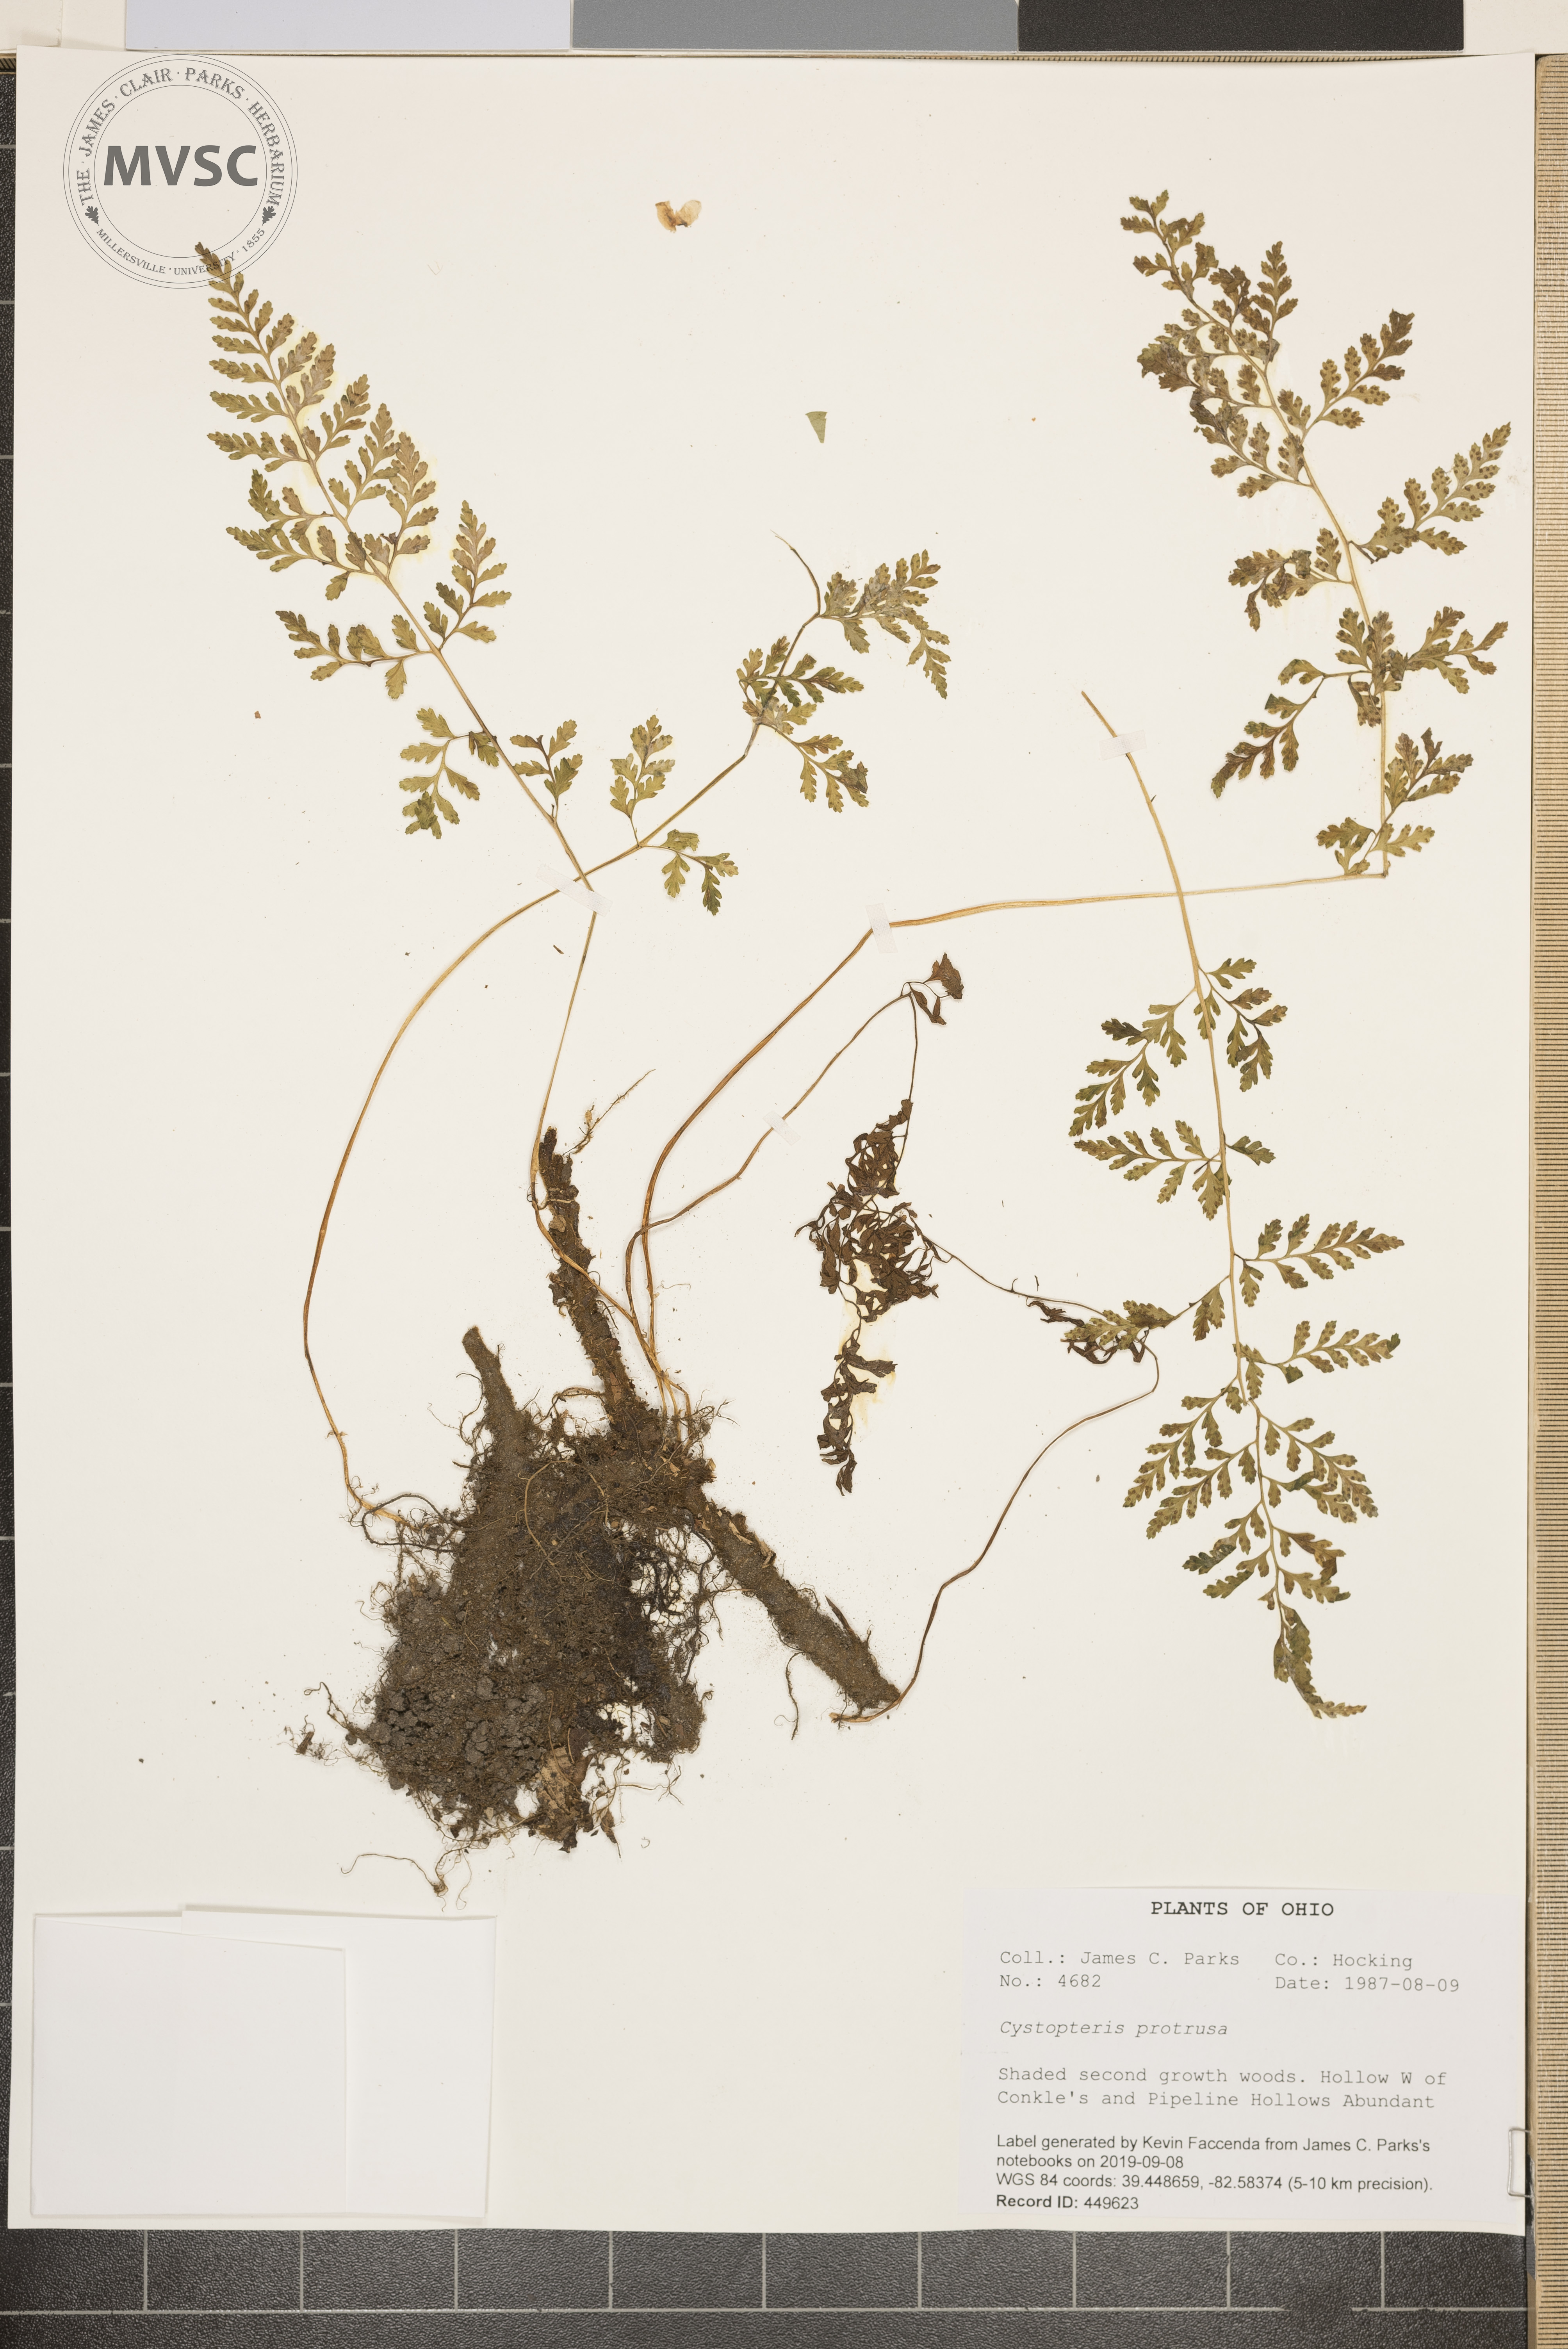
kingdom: Plantae
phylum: Tracheophyta
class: Polypodiopsida
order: Polypodiales
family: Cystopteridaceae
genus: Cystopteris
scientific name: Cystopteris protrusa
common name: Lowland brittle fern
